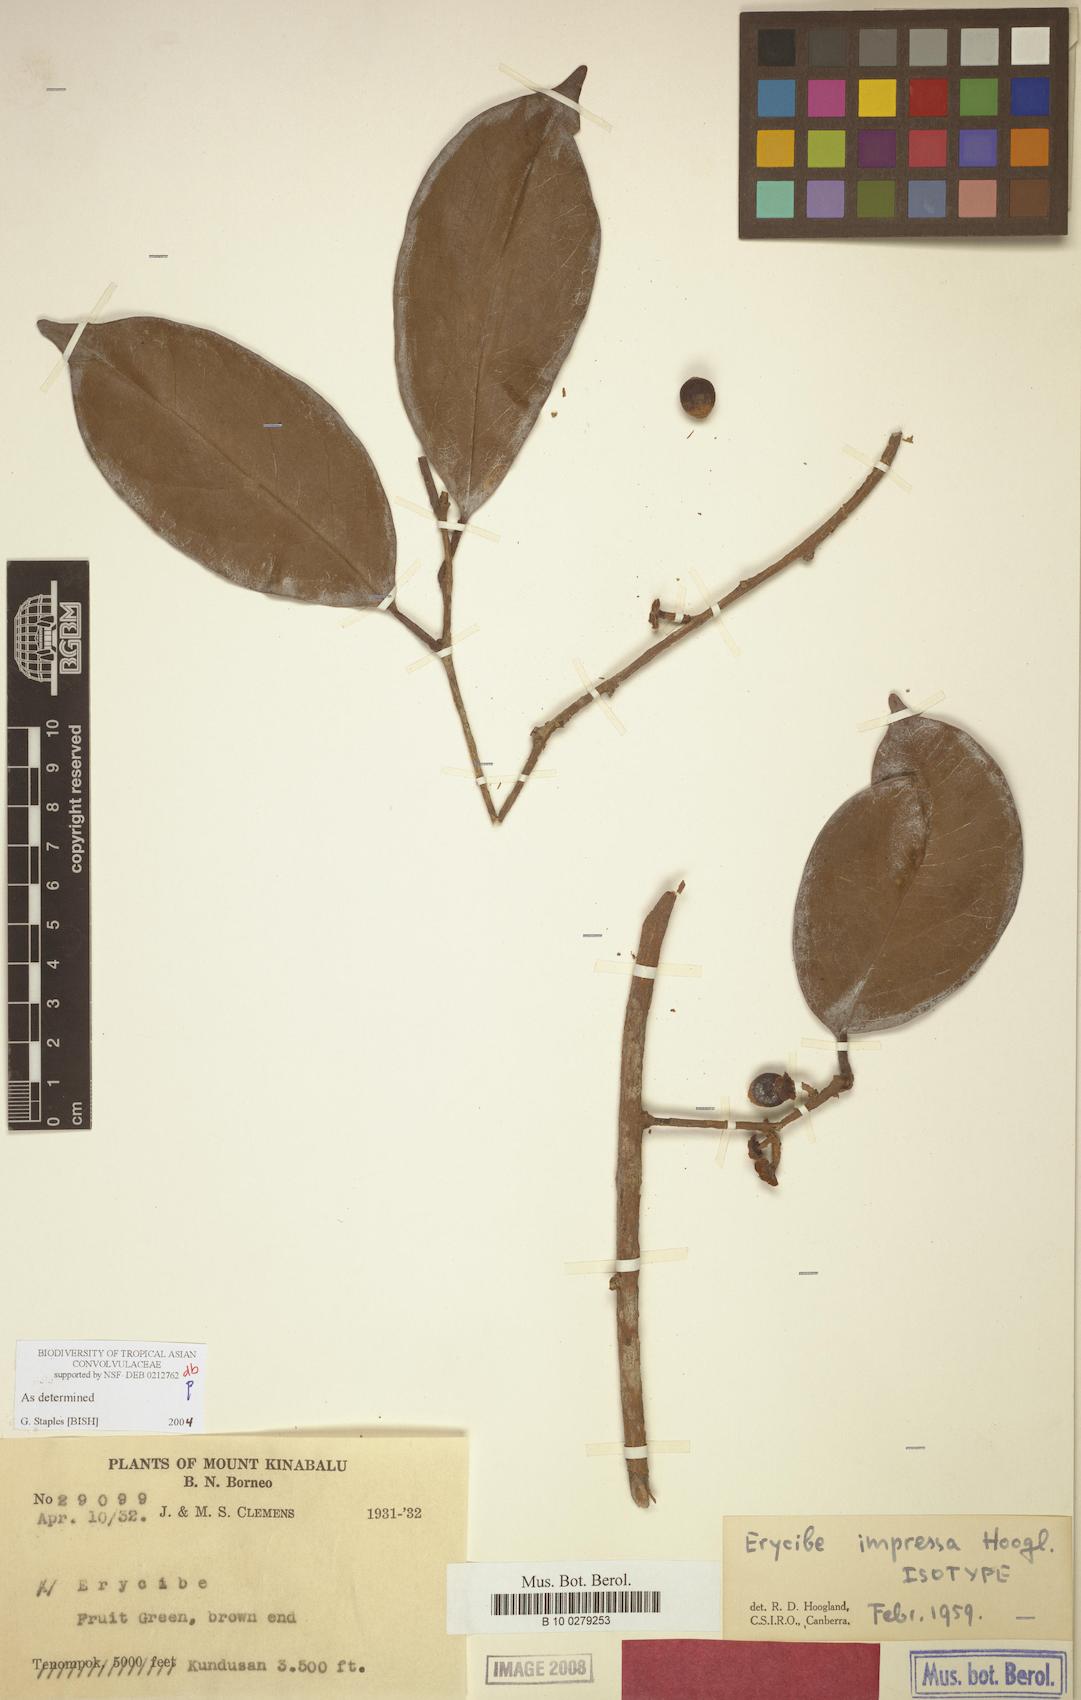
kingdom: Plantae
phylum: Tracheophyta
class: Magnoliopsida
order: Solanales
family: Convolvulaceae
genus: Erycibe
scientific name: Erycibe impressa
